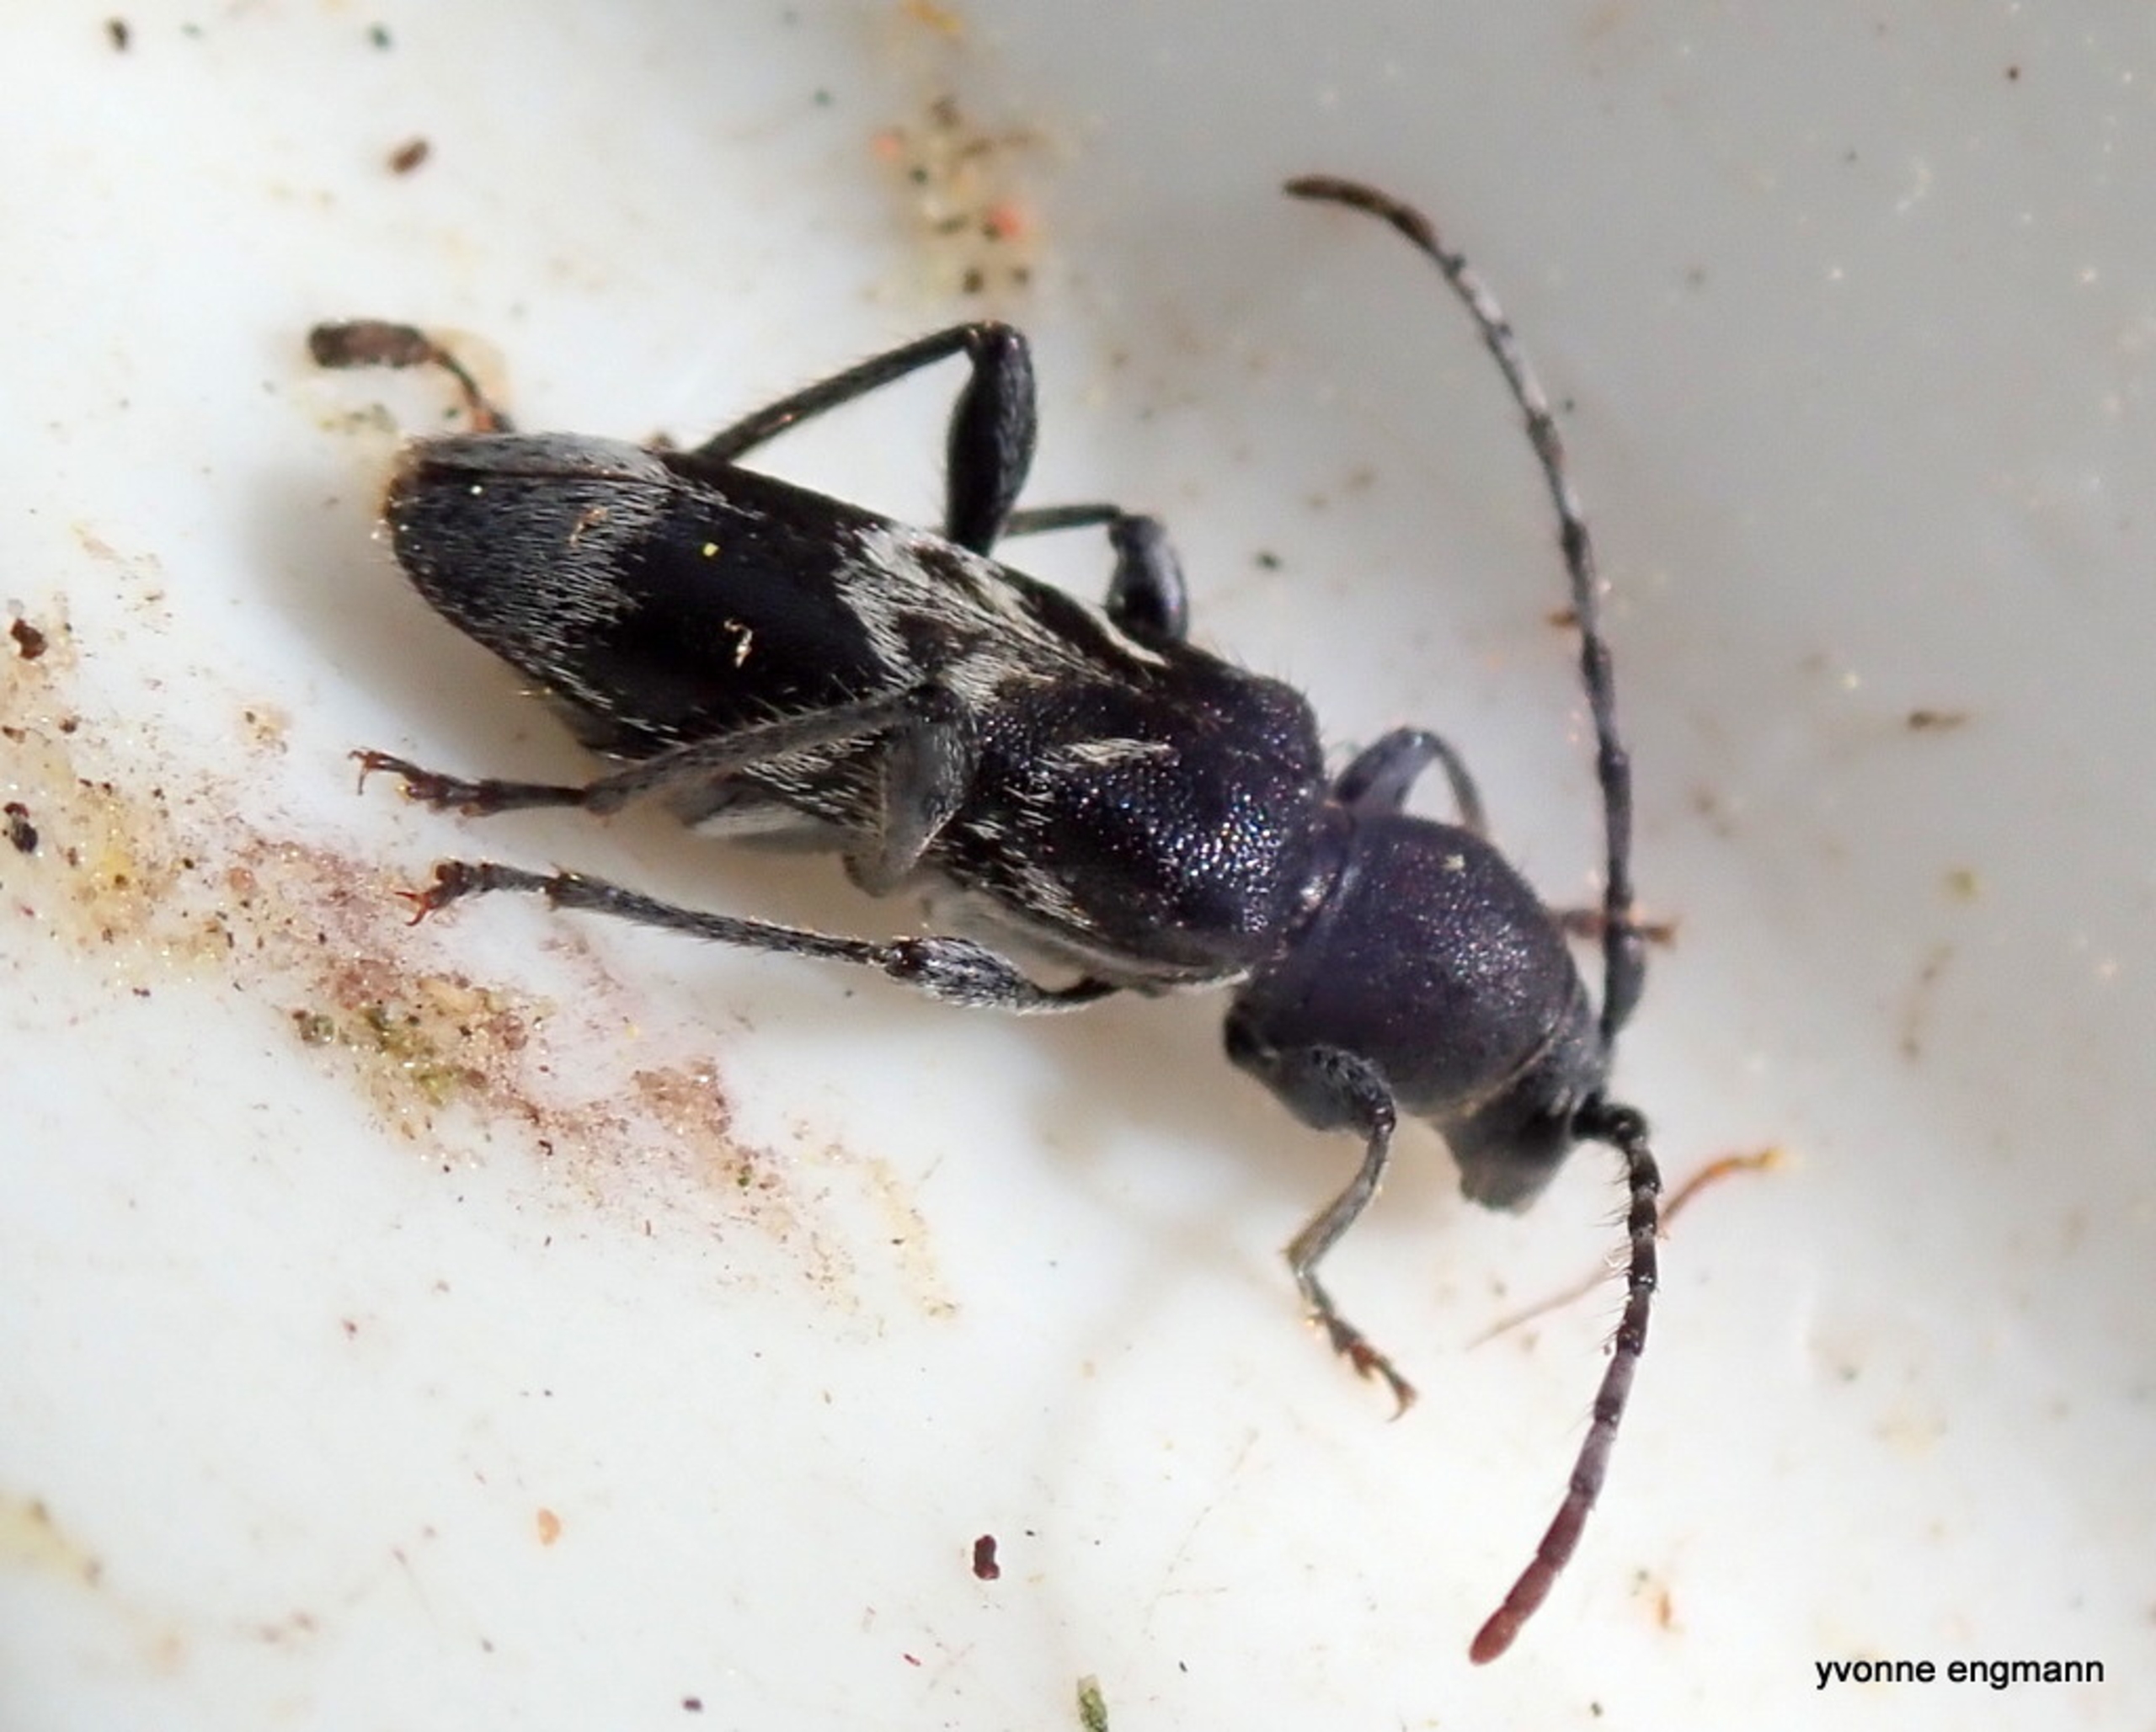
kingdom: Animalia
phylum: Arthropoda
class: Insecta
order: Coleoptera
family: Cerambycidae
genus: Anaglyptus
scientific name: Anaglyptus mysticus
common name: Hvidtjørnshvepsebuk
